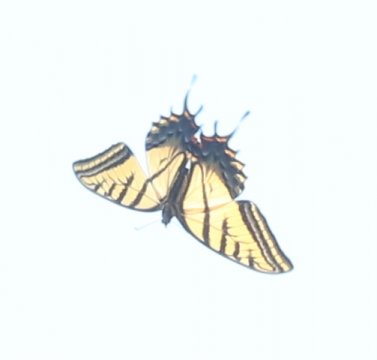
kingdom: Animalia
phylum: Arthropoda
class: Insecta
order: Lepidoptera
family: Papilionidae
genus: Papilio
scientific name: Papilio multicaudata
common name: Two-tailed Swallowtail
